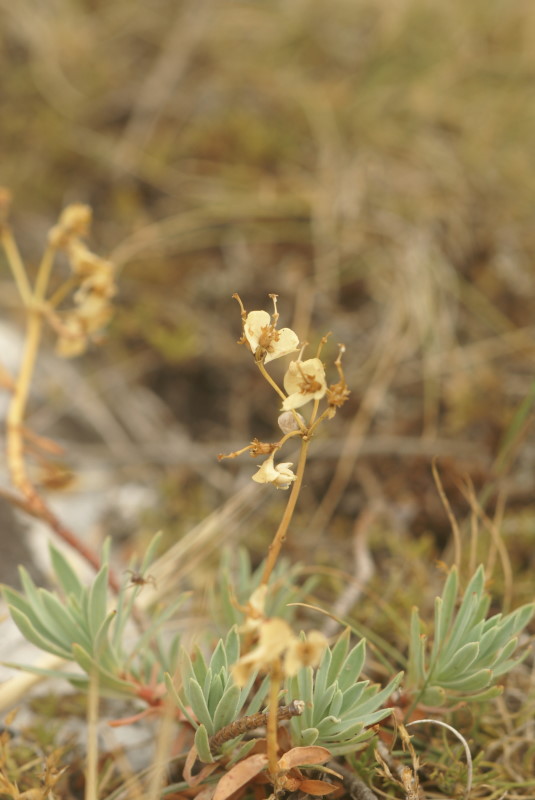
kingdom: Plantae
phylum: Tracheophyta
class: Magnoliopsida
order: Malpighiales
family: Euphorbiaceae
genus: Euphorbia
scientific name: Euphorbia petrophila
